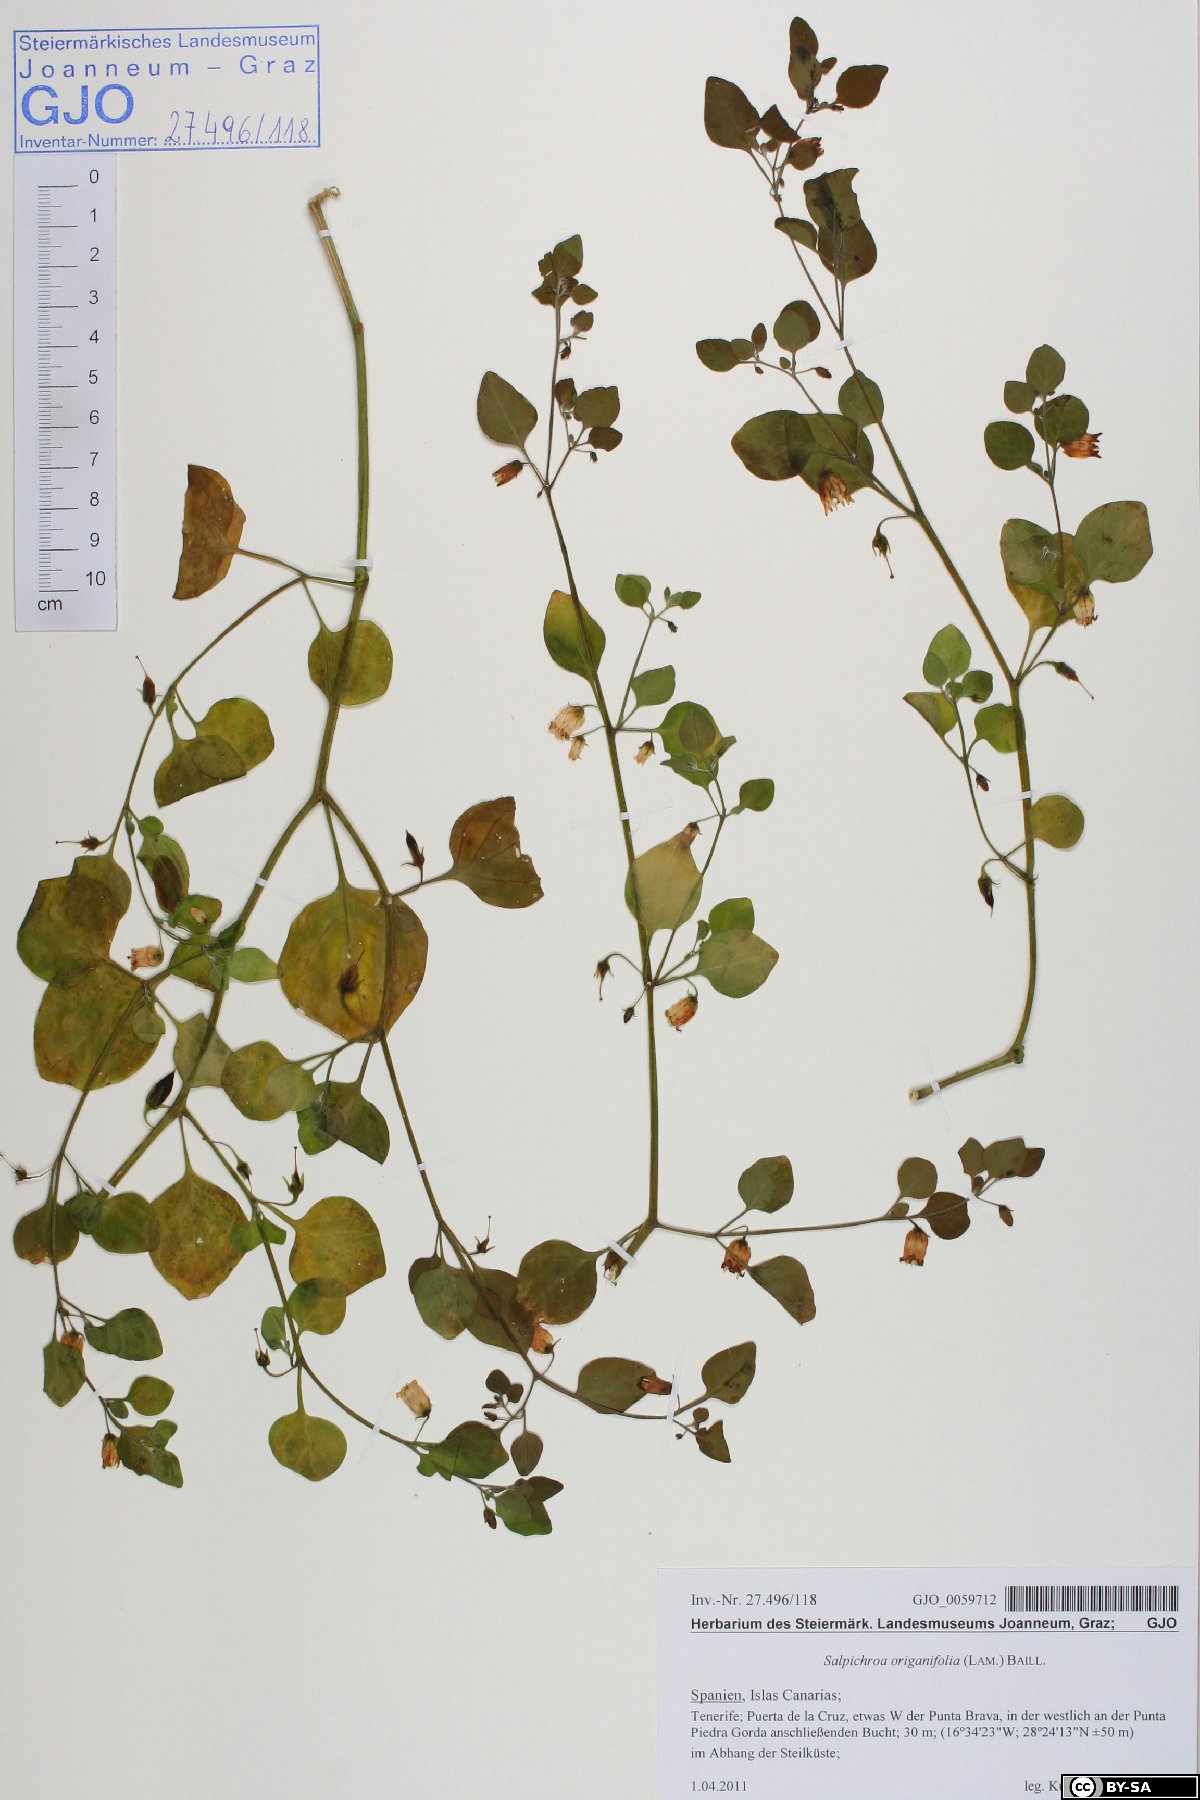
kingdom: Plantae
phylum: Tracheophyta
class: Magnoliopsida
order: Solanales
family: Solanaceae
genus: Salpichroa
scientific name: Salpichroa origanifolia
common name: Lily-of-the-valley-vine
